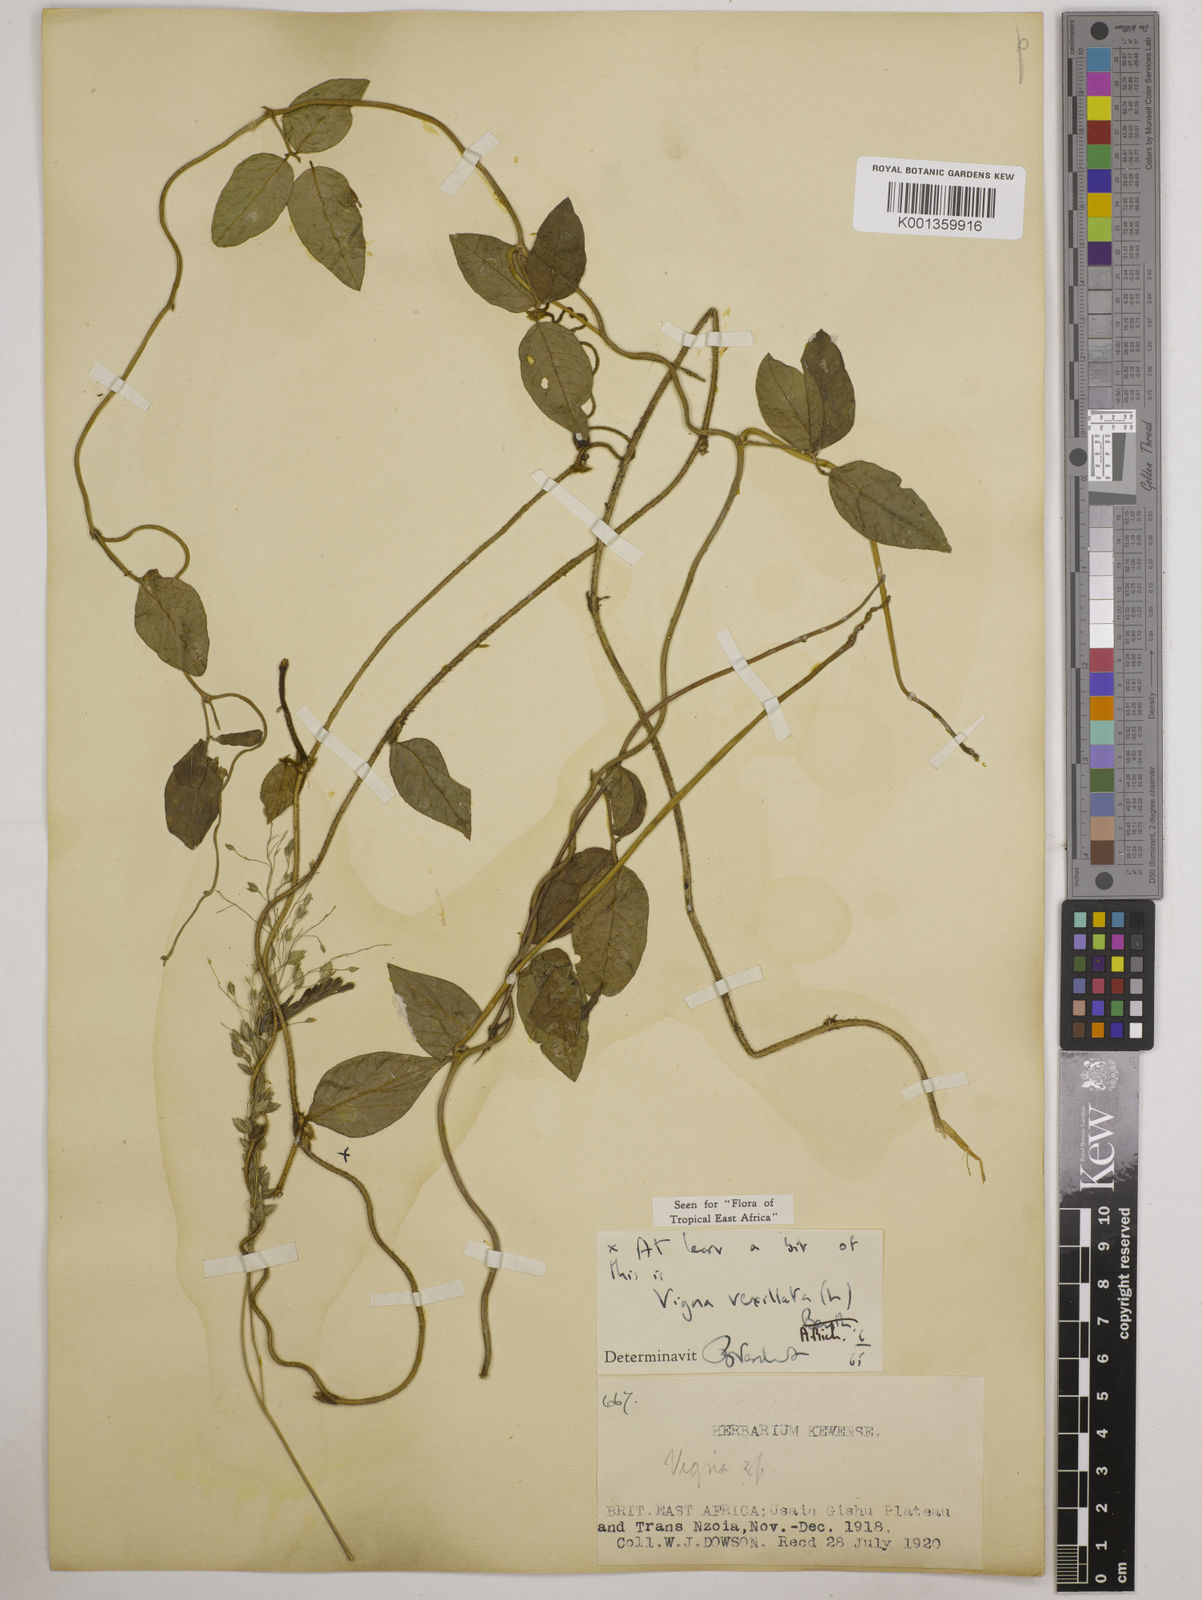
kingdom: Plantae
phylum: Tracheophyta
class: Magnoliopsida
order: Fabales
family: Fabaceae
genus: Vigna
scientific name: Vigna vexillata
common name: Zombi pea
